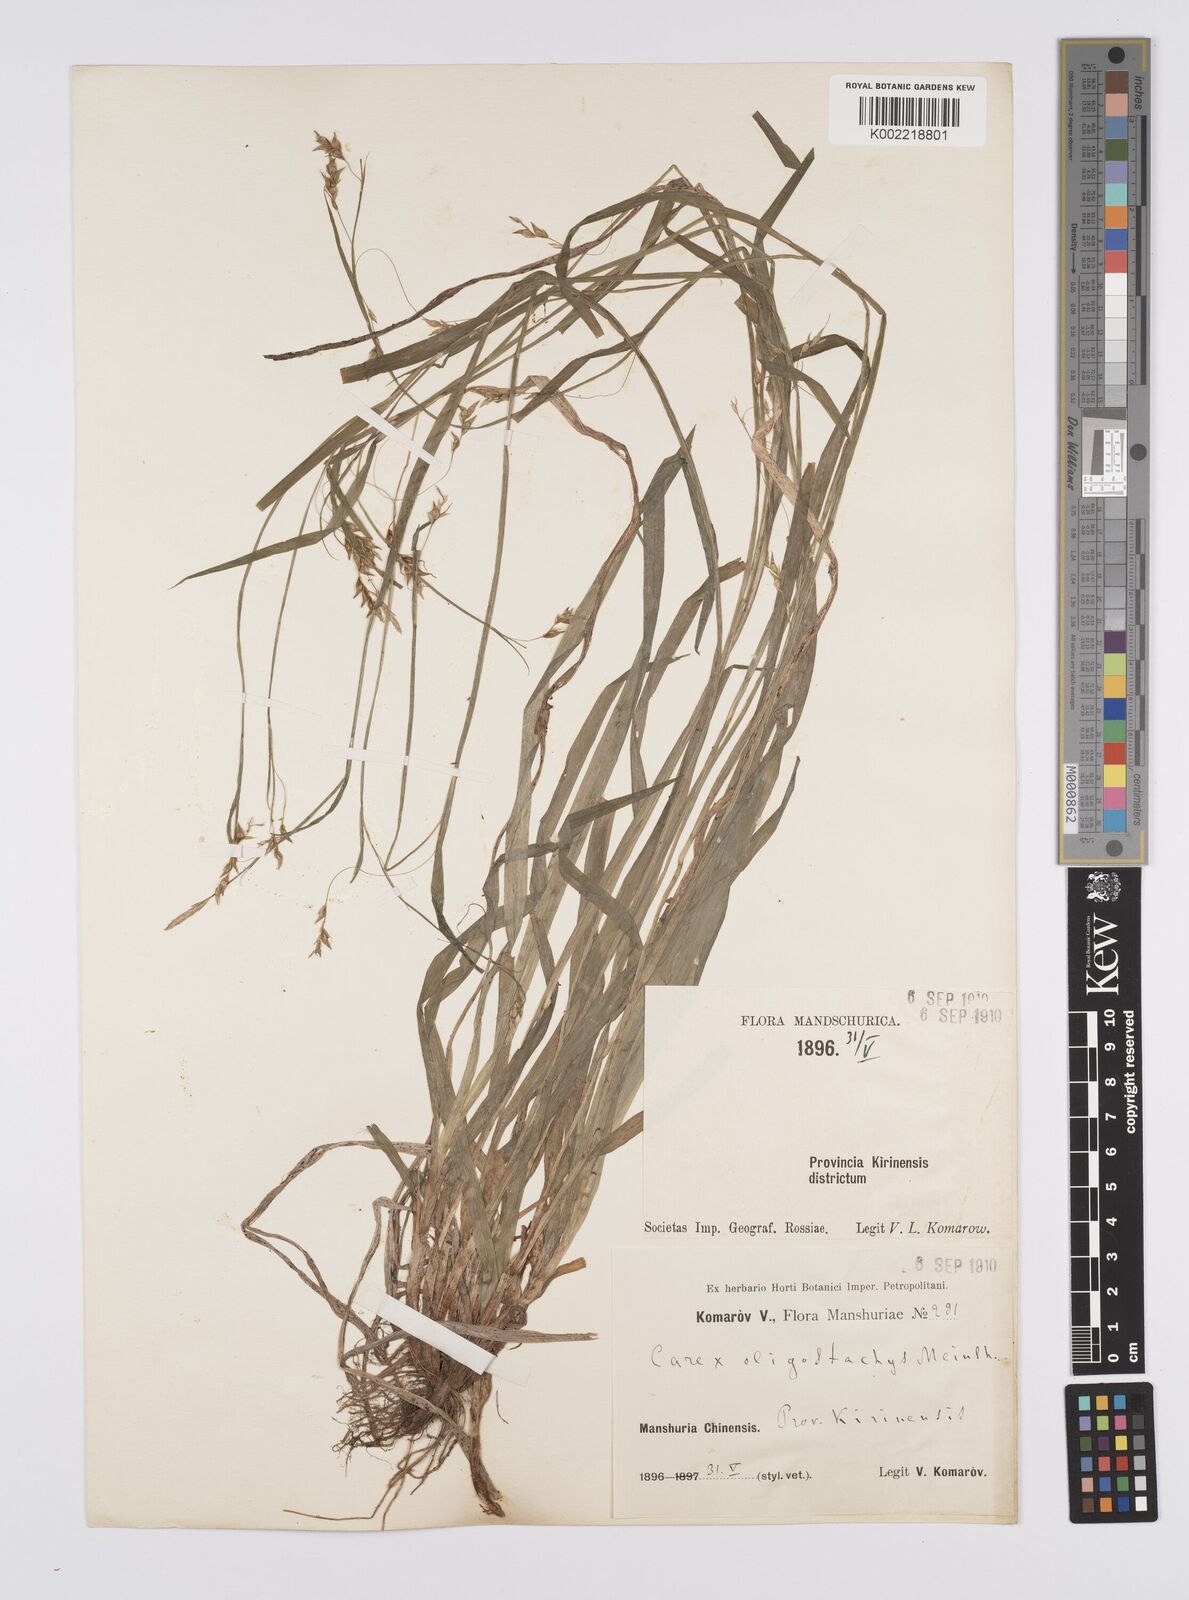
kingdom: Plantae
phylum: Tracheophyta
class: Liliopsida
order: Poales
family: Cyperaceae
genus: Carex
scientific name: Carex filipes
